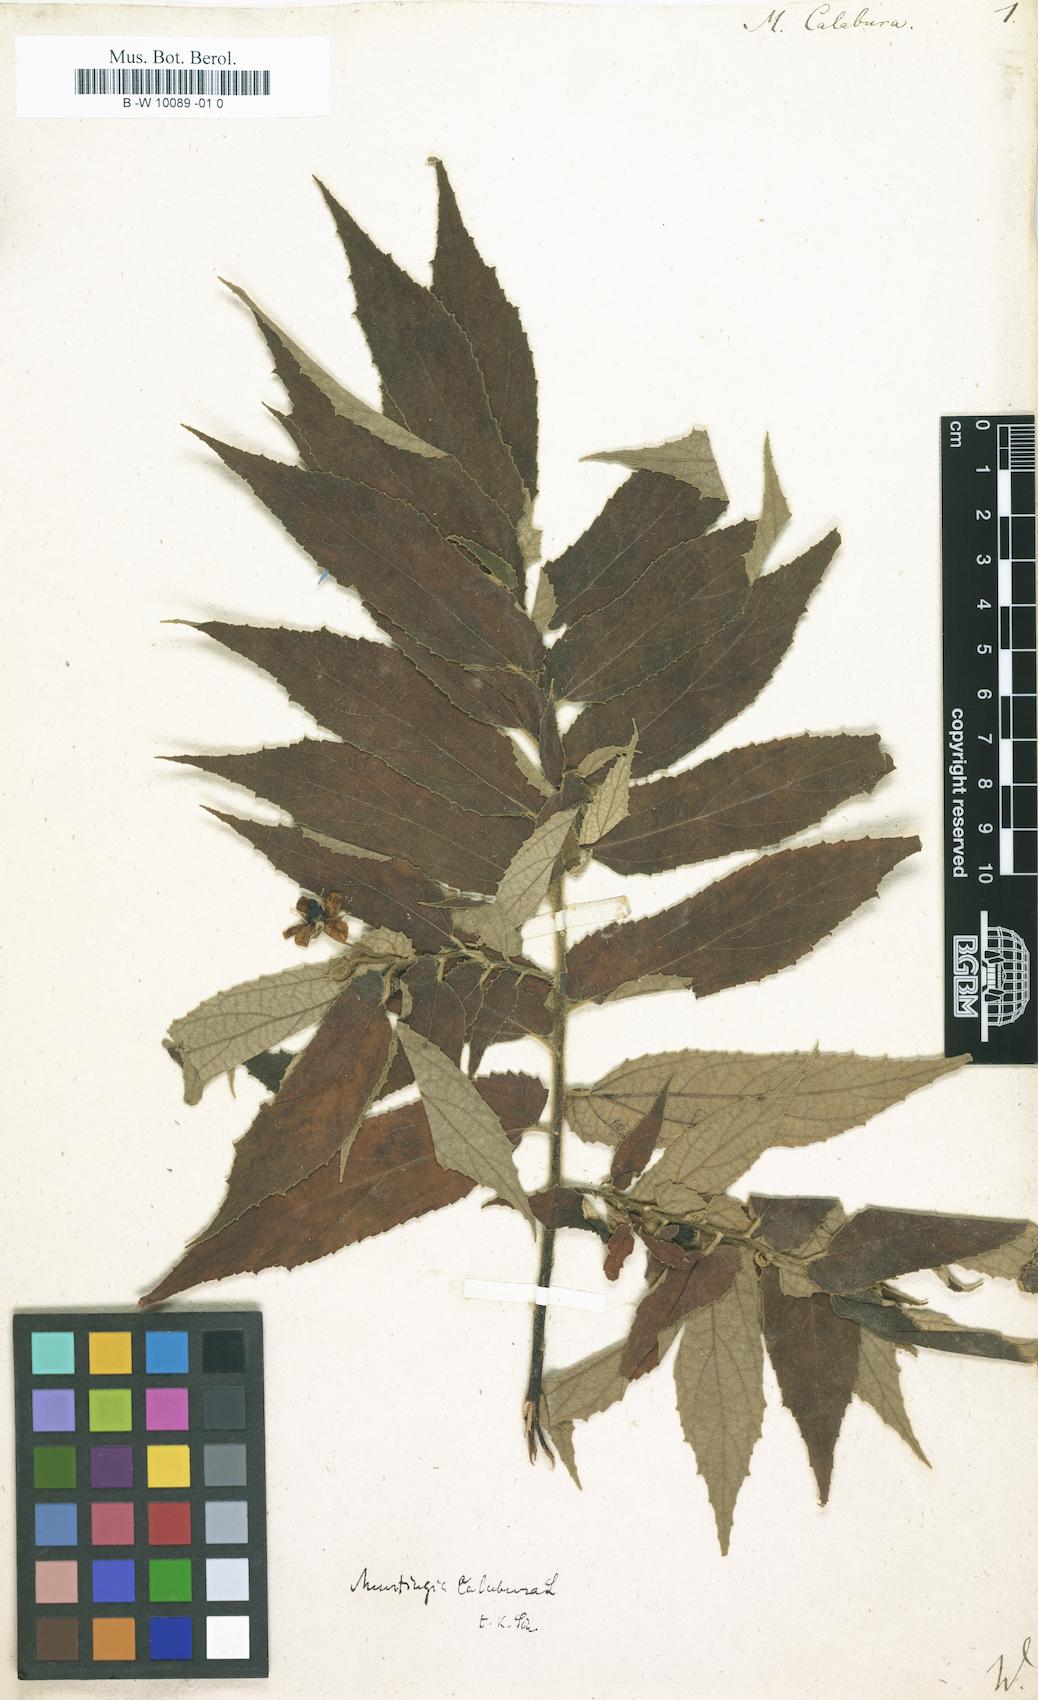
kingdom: Plantae
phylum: Tracheophyta
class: Magnoliopsida
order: Malvales
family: Muntingiaceae
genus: Muntingia
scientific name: Muntingia calabura
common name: Strawberrytree
